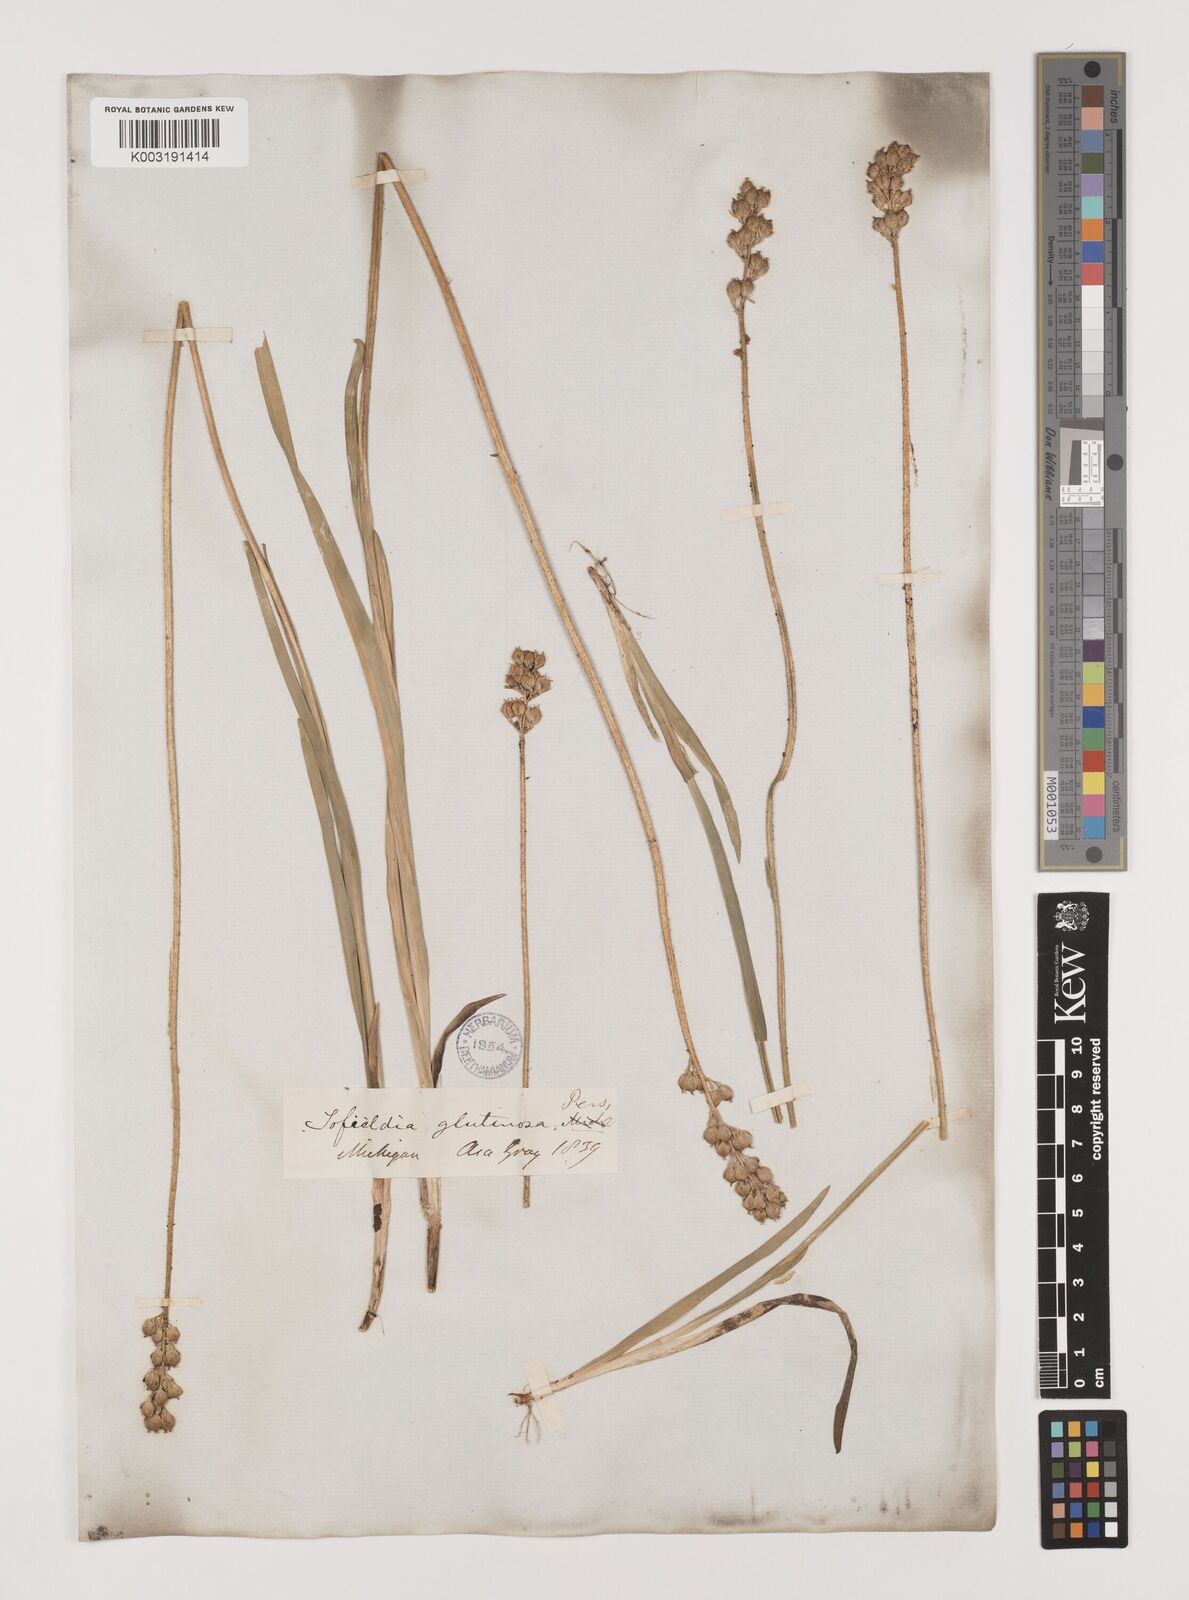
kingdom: Plantae
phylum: Tracheophyta
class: Liliopsida
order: Alismatales
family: Tofieldiaceae
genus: Triantha
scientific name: Triantha glutinosa
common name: Glutinous tofieldia
